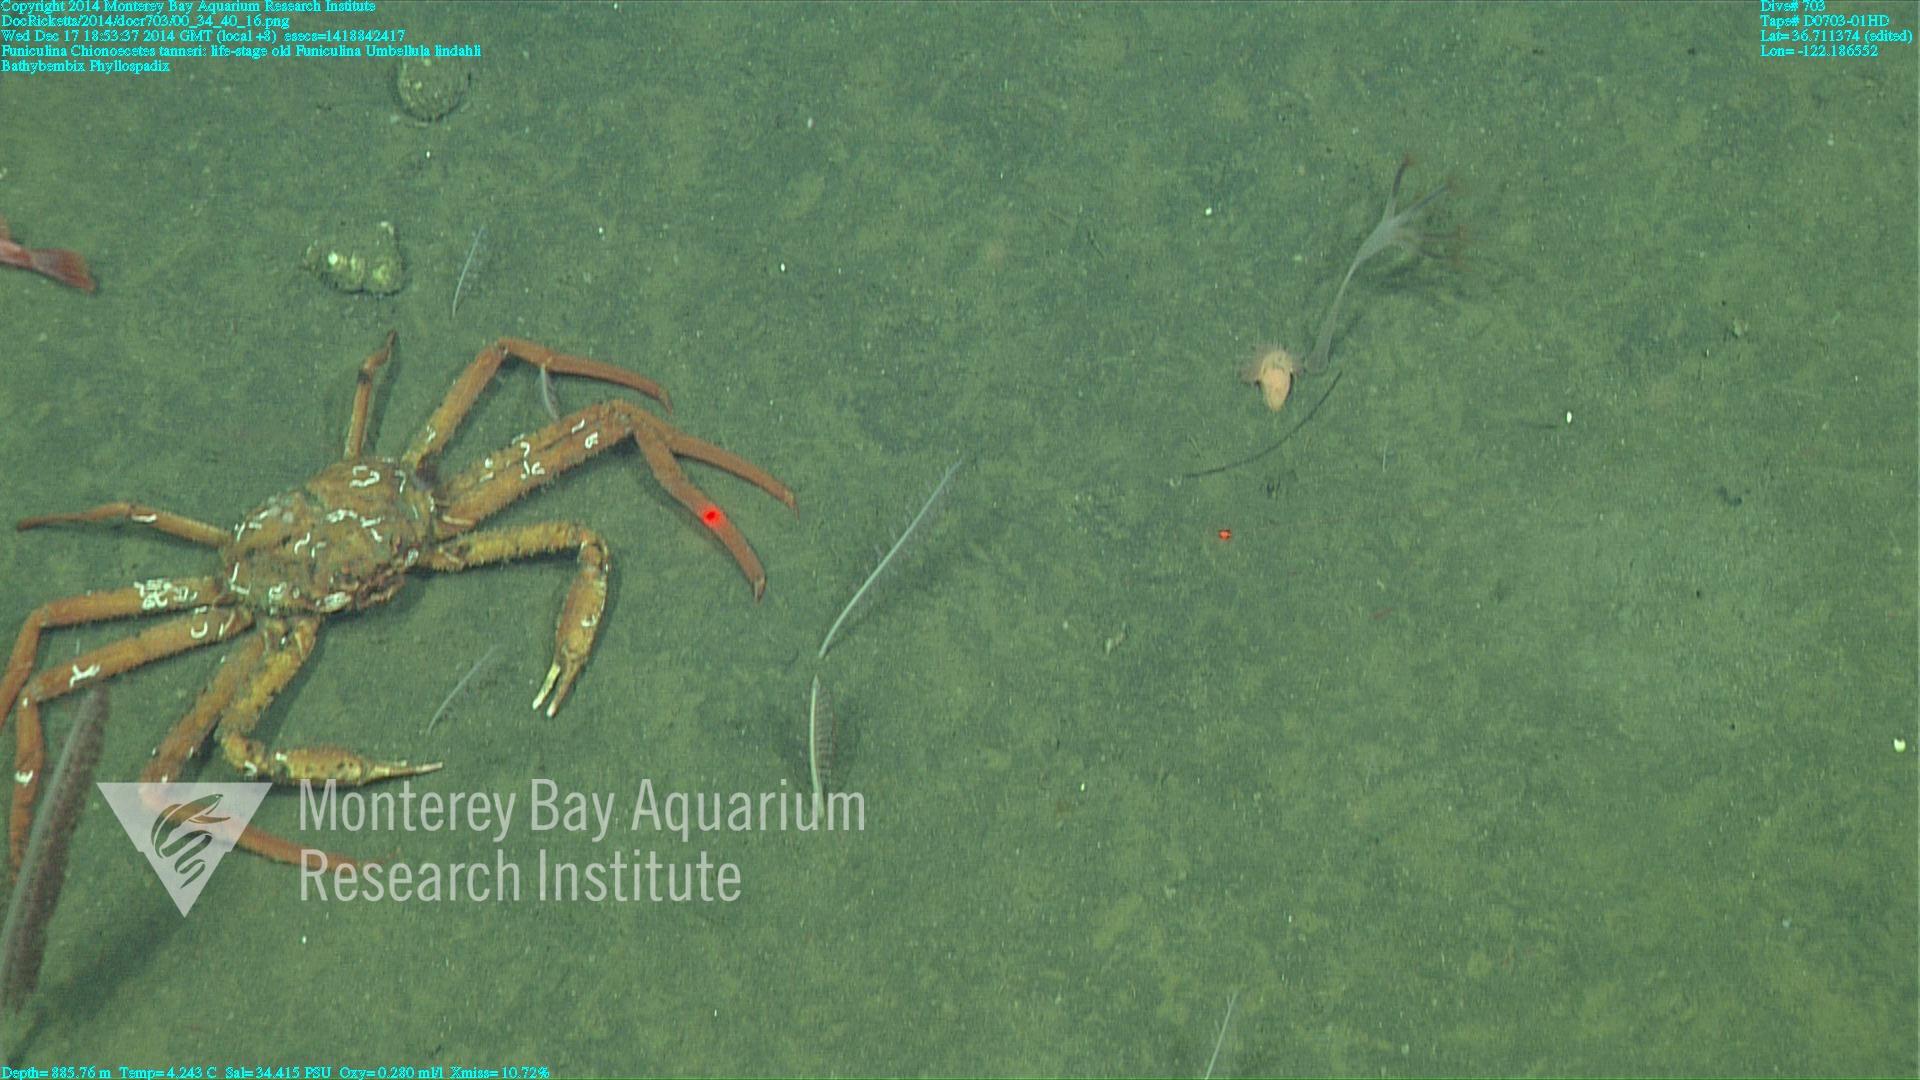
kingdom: Animalia
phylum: Cnidaria
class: Anthozoa
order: Scleralcyonacea
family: Funiculinidae
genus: Funiculina
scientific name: Funiculina
